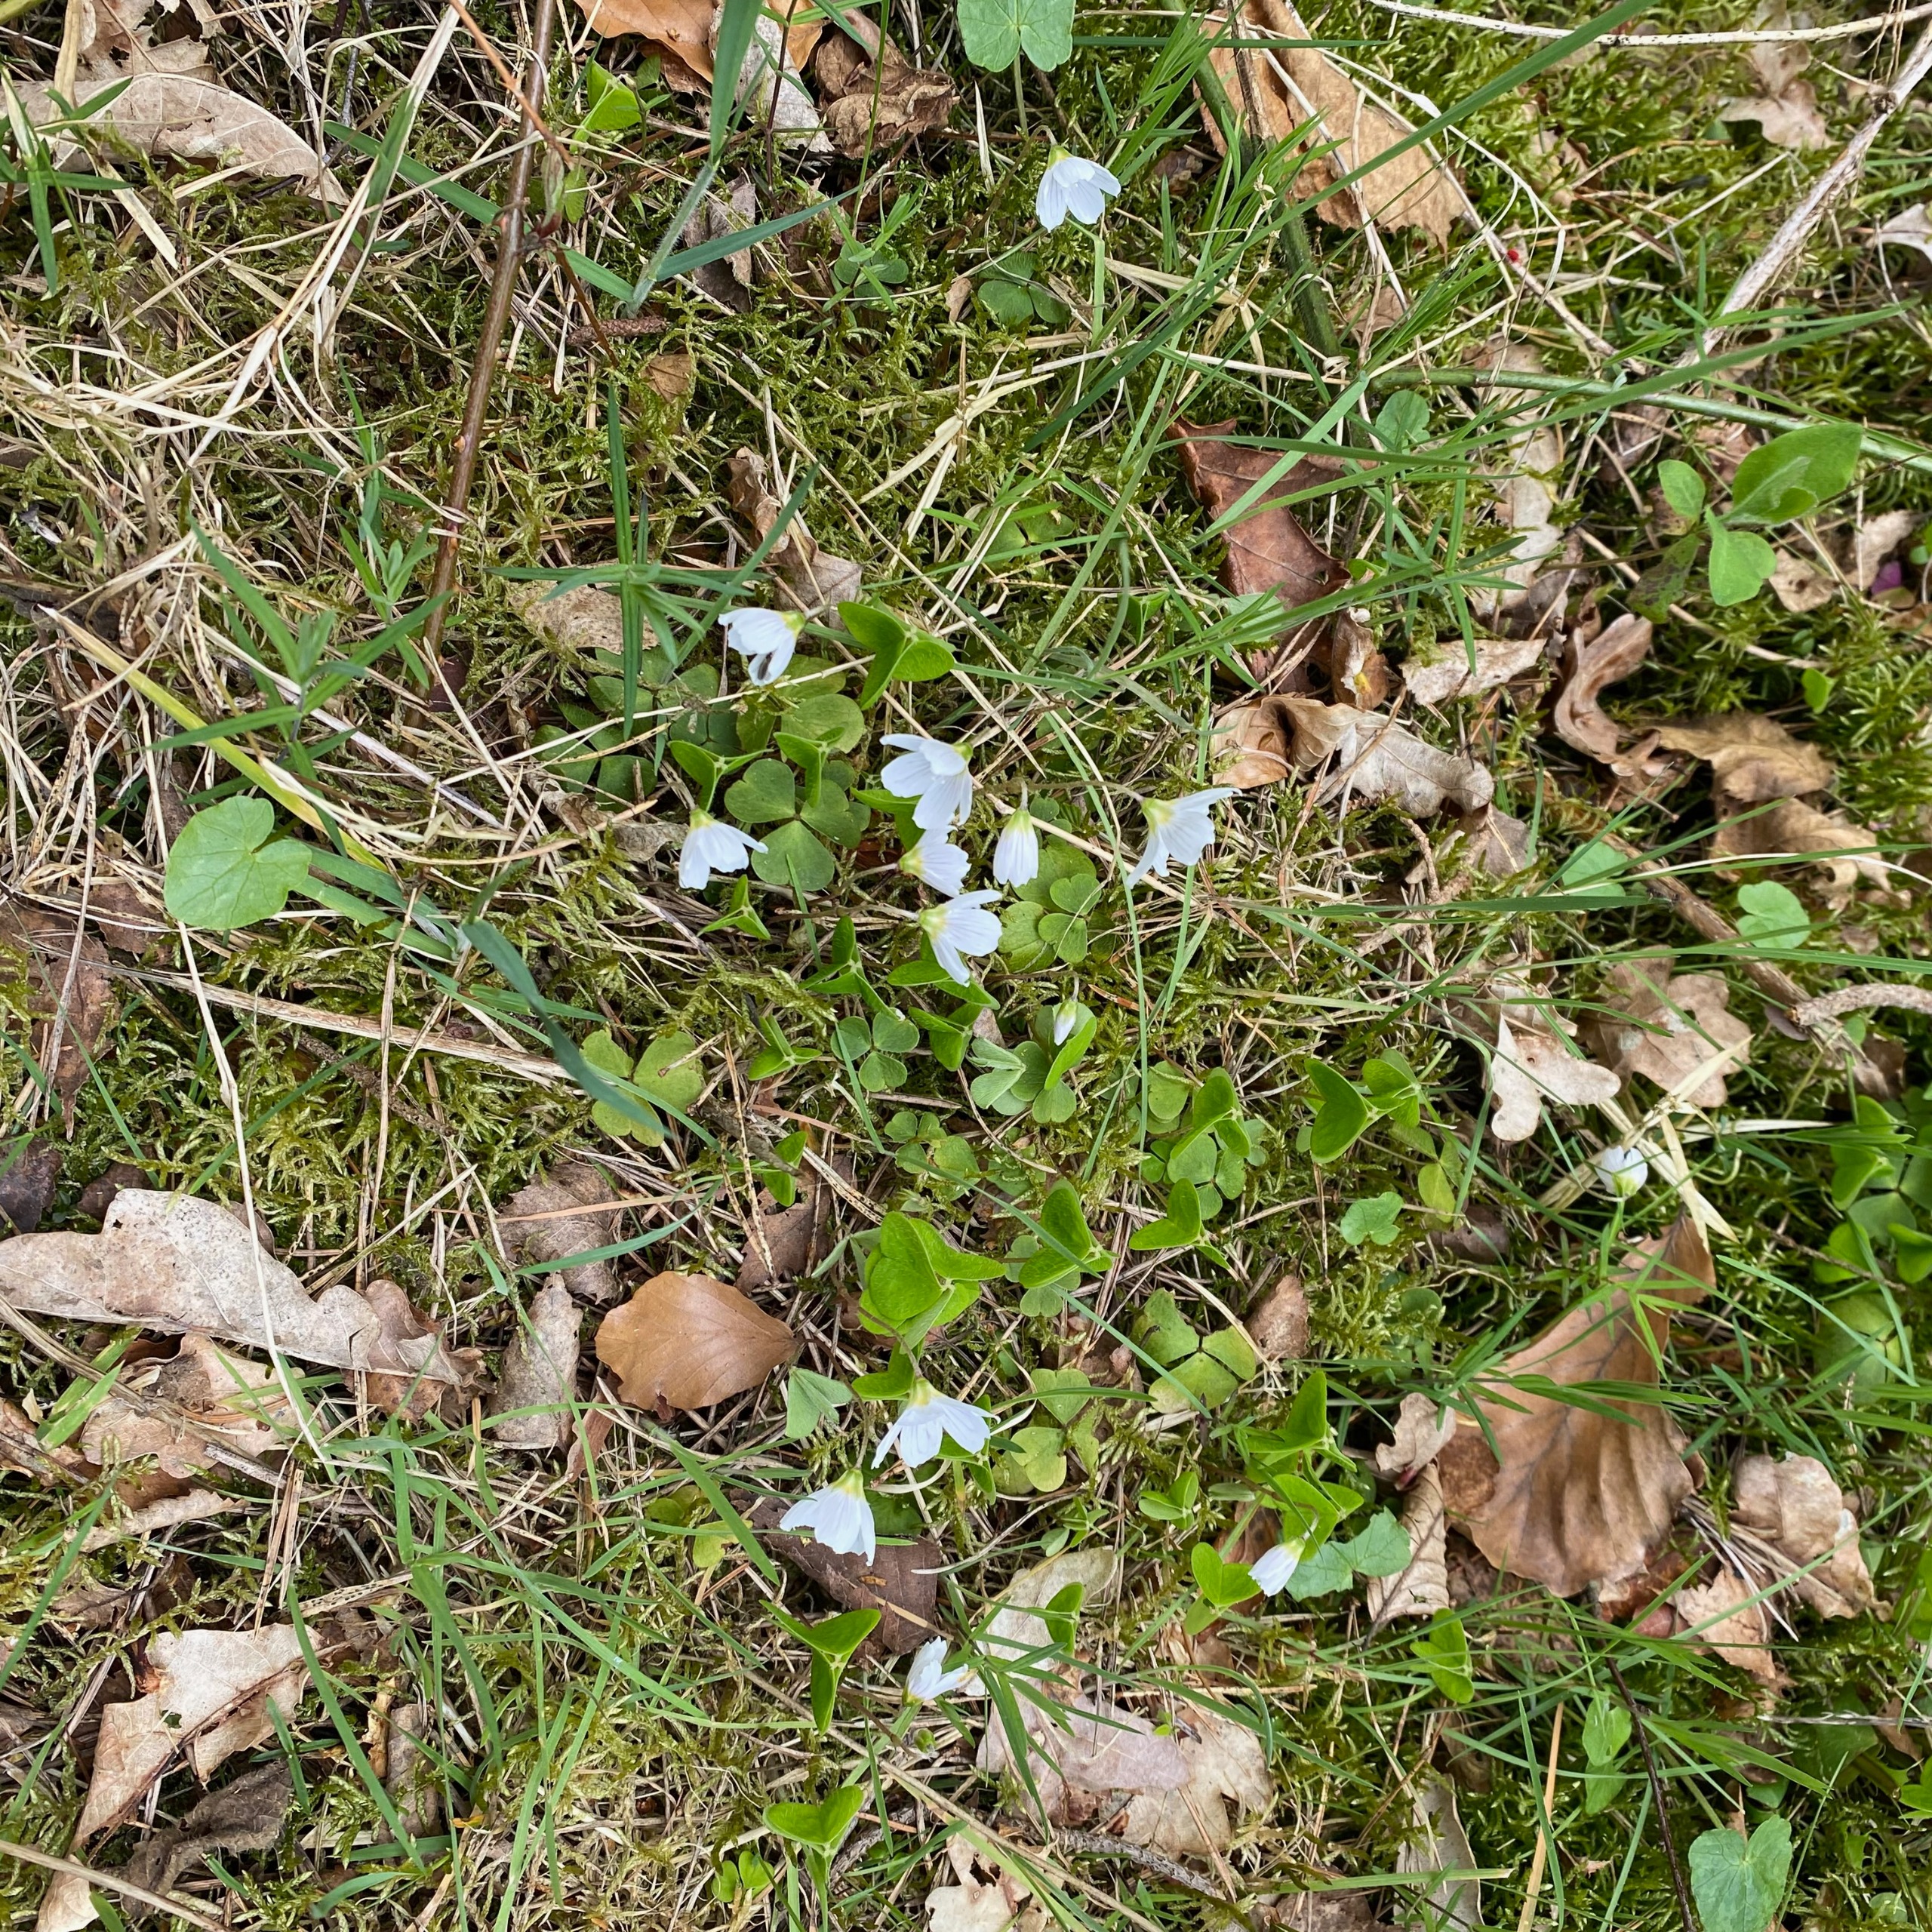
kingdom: Plantae
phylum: Tracheophyta
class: Magnoliopsida
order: Oxalidales
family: Oxalidaceae
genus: Oxalis
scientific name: Oxalis acetosella
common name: Skovsyre
